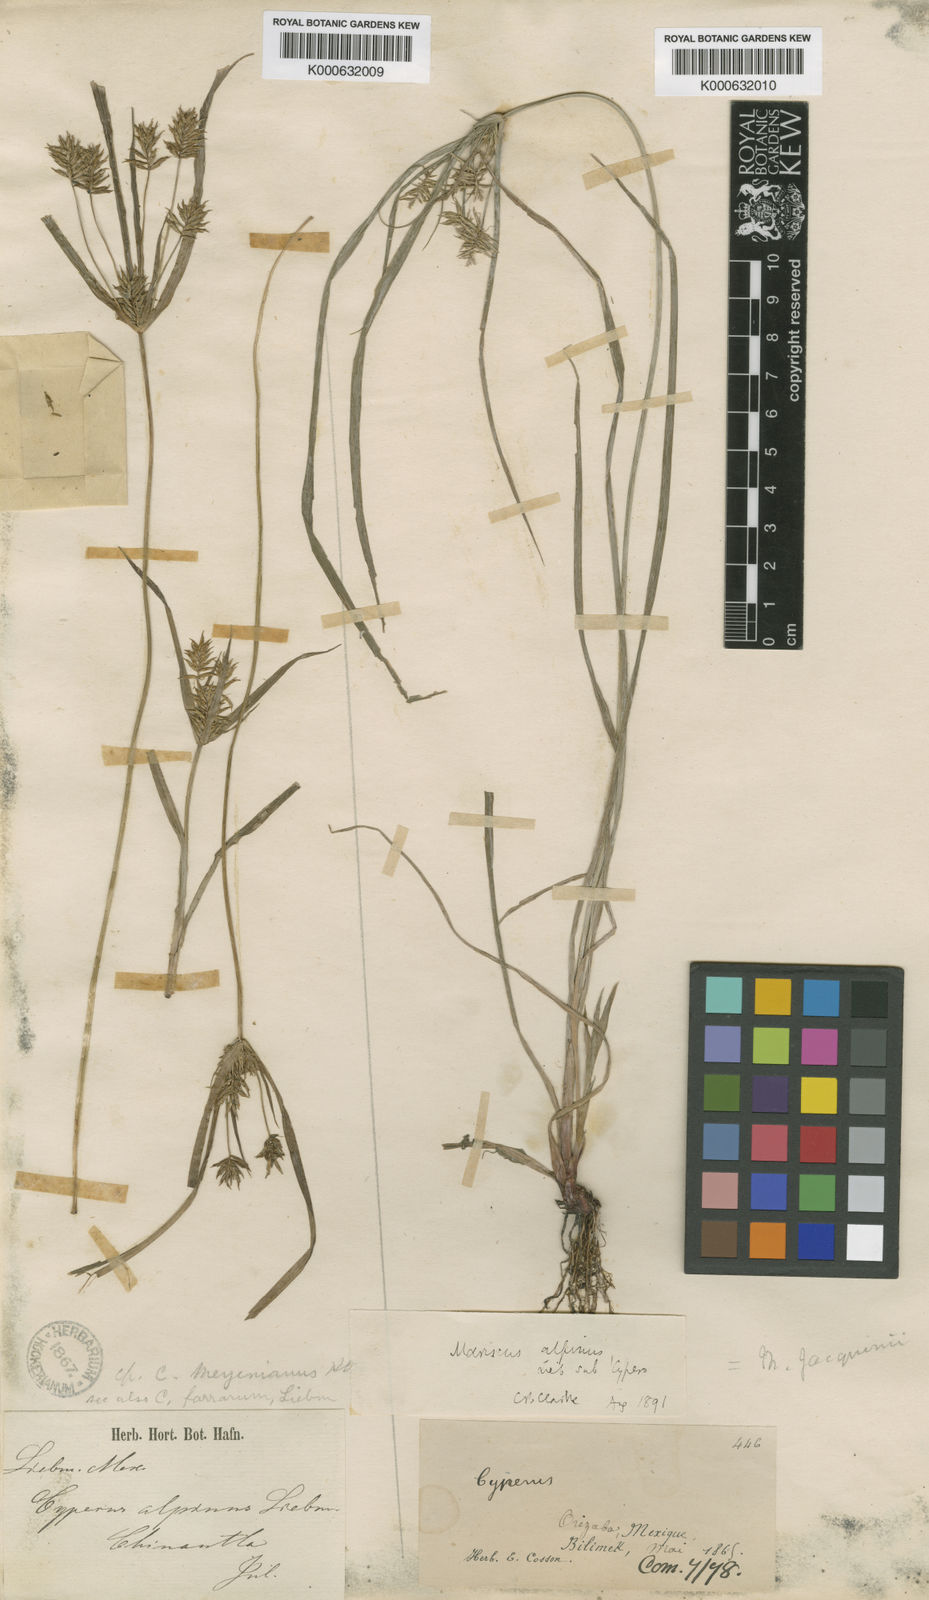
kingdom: Plantae
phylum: Tracheophyta
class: Liliopsida
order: Poales
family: Cyperaceae
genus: Cyperus
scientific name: Cyperus hermaphroditus
